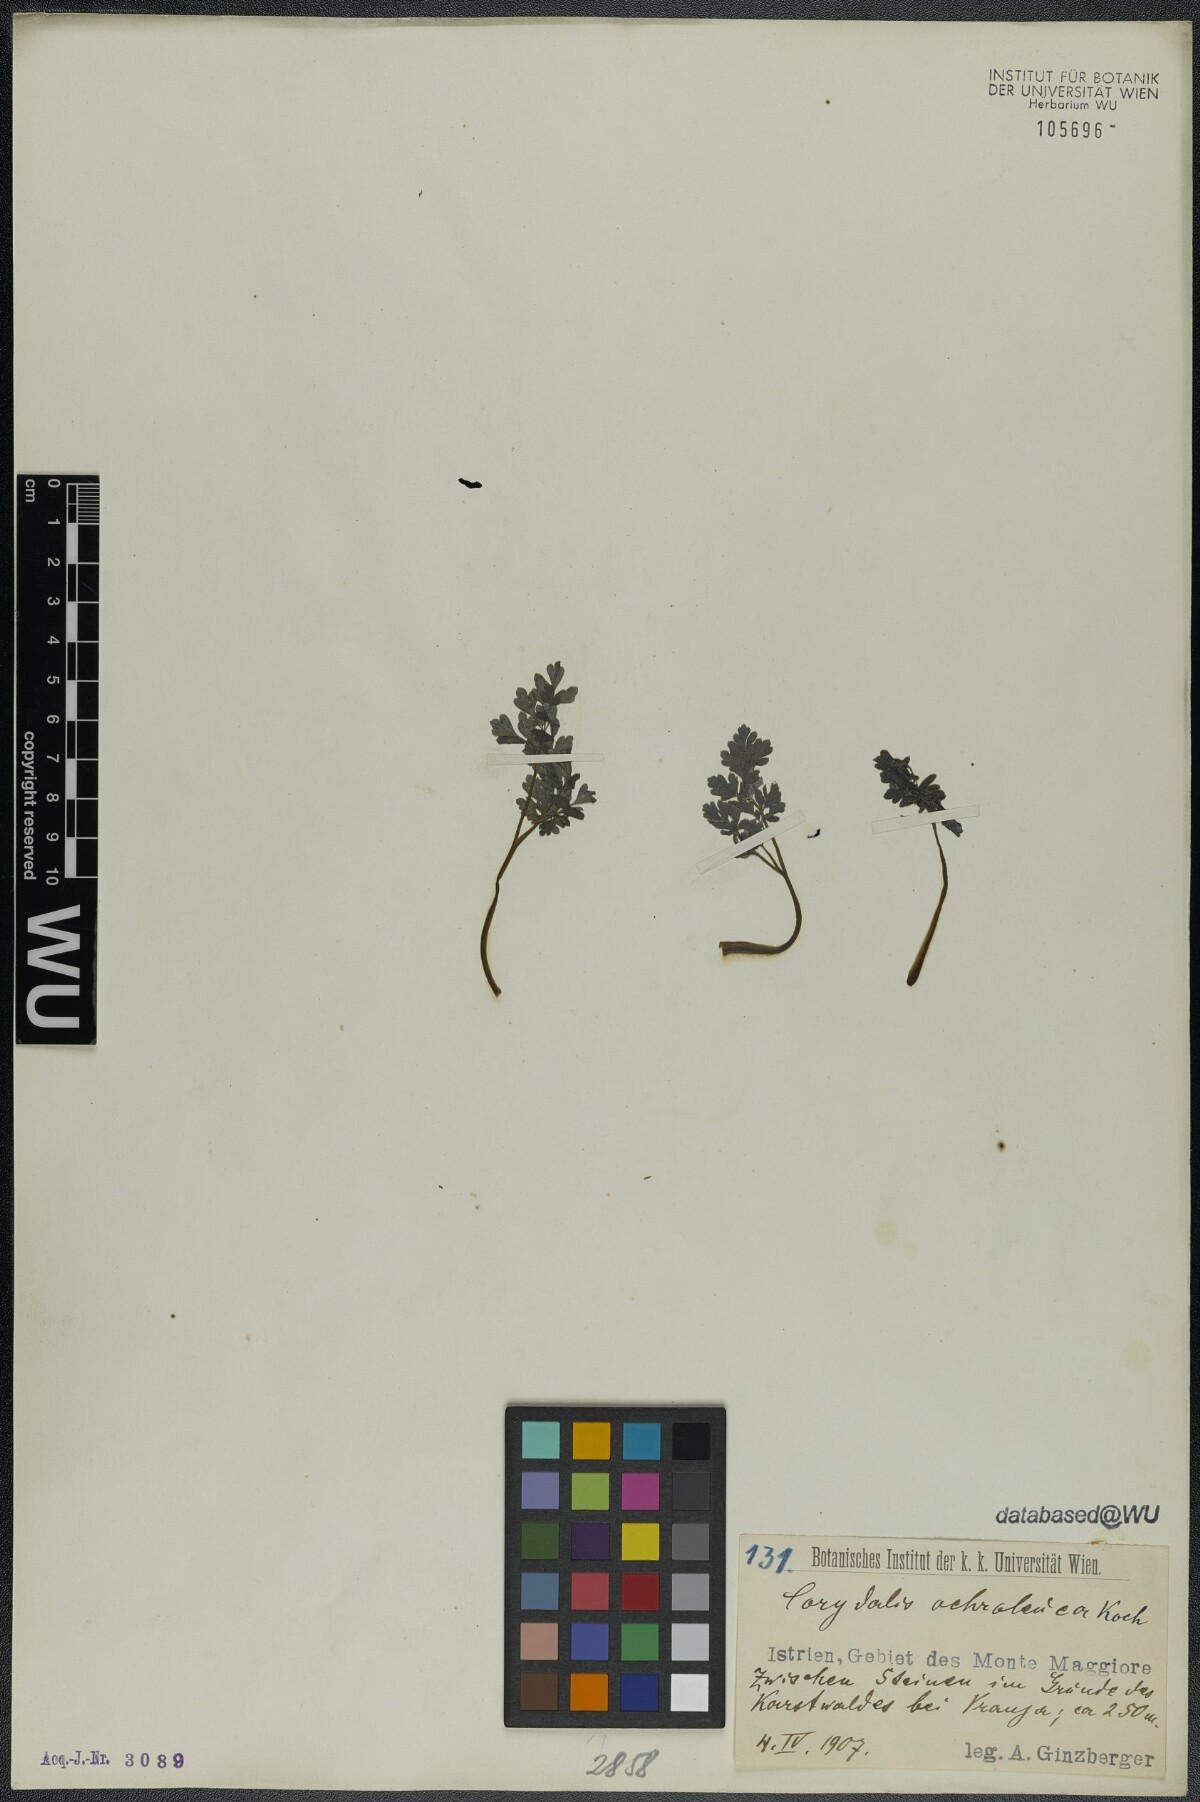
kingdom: Plantae
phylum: Tracheophyta
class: Magnoliopsida
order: Ranunculales
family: Papaveraceae
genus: Pseudofumaria
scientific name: Pseudofumaria alba
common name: Pale corydalis
